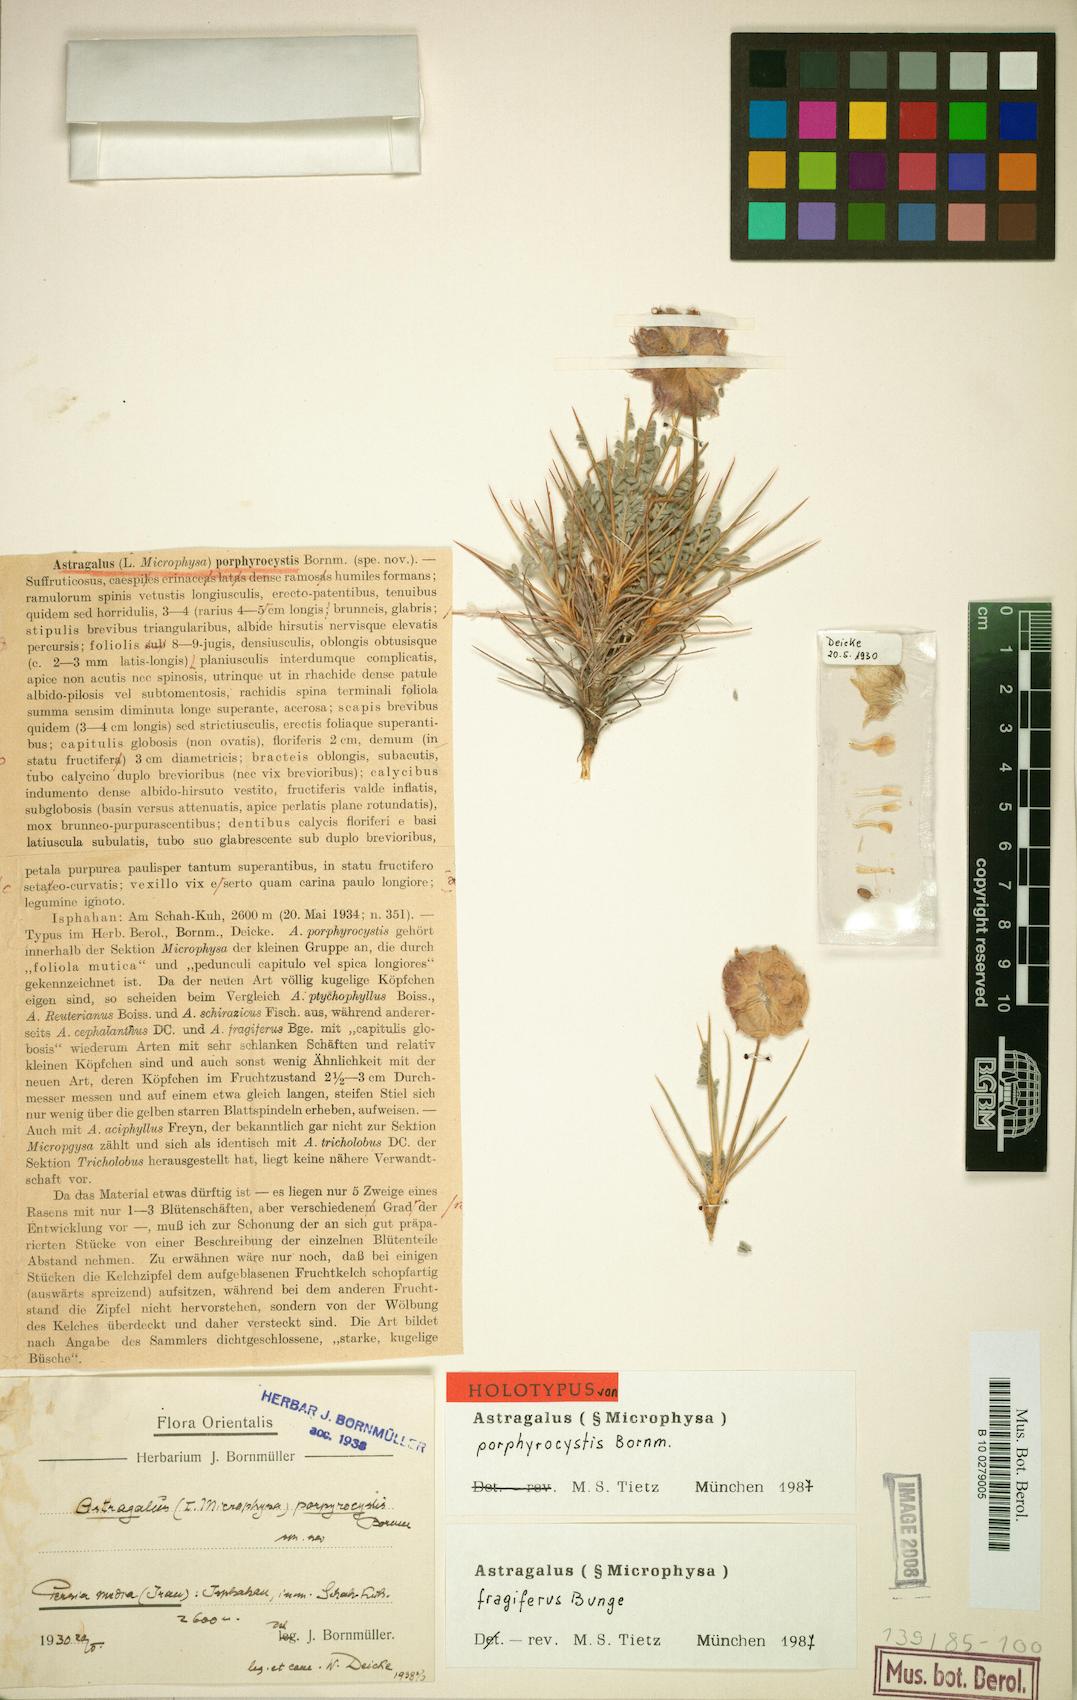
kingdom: Plantae
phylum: Tracheophyta
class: Magnoliopsida
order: Fabales
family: Fabaceae
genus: Astragalus
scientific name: Astragalus fragiferus
